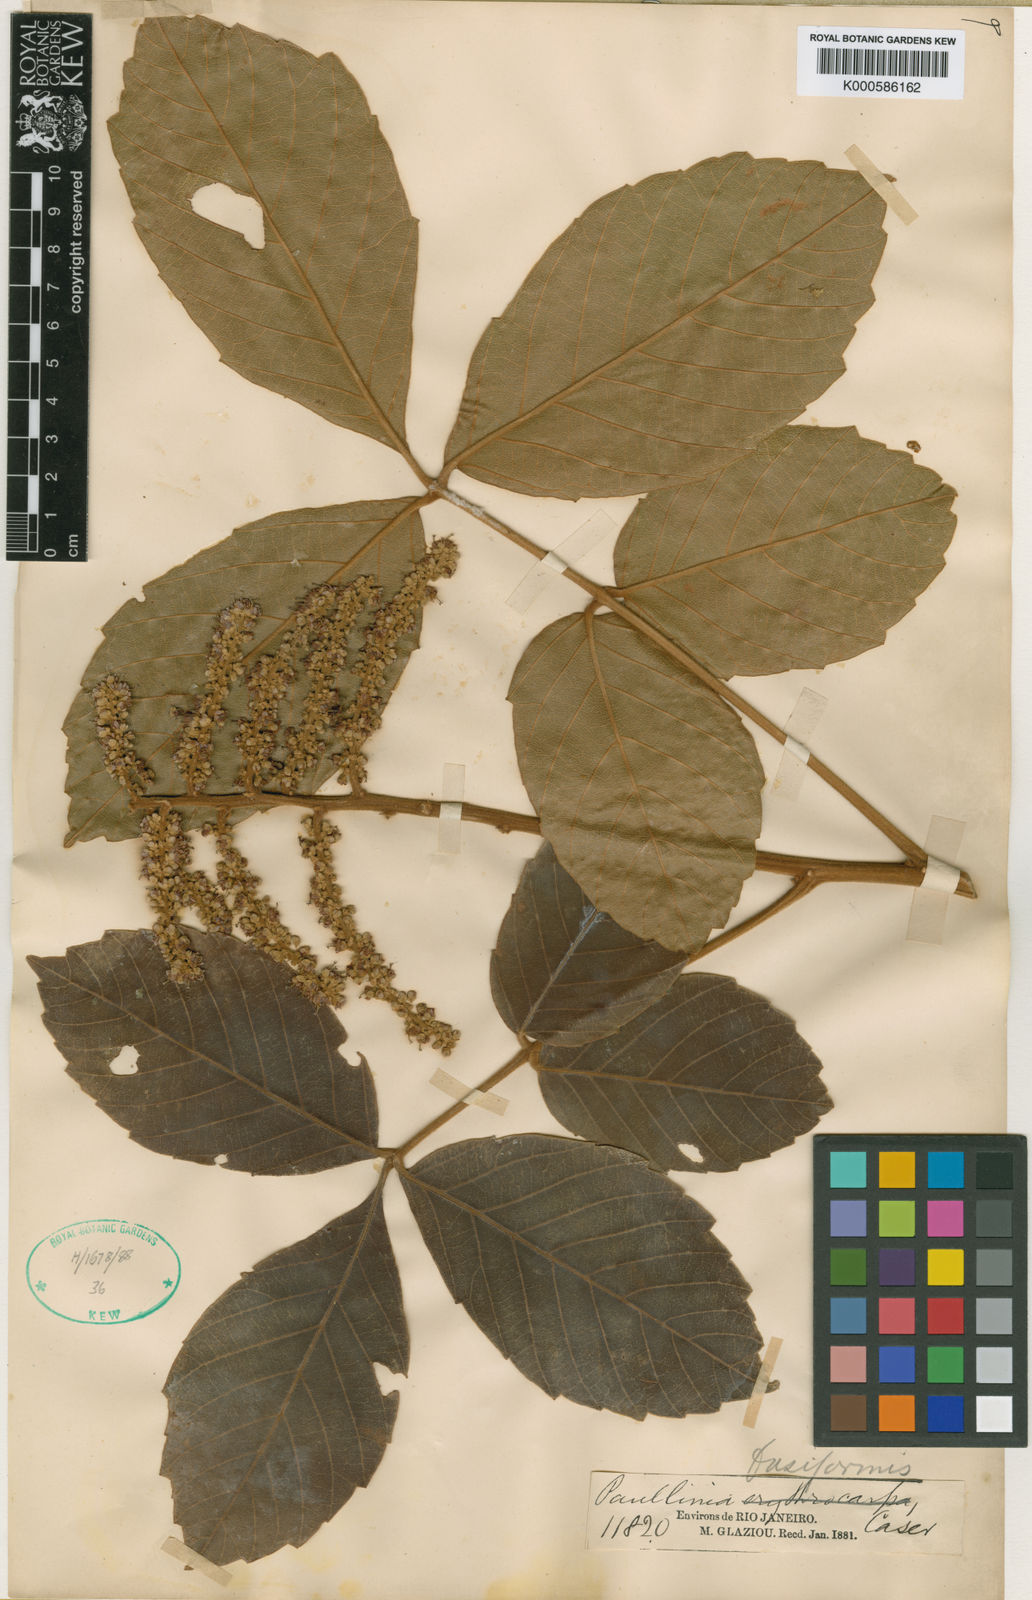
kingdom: Plantae
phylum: Tracheophyta
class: Magnoliopsida
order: Sapindales
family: Sapindaceae
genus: Paullinia
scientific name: Paullinia fusiformis
